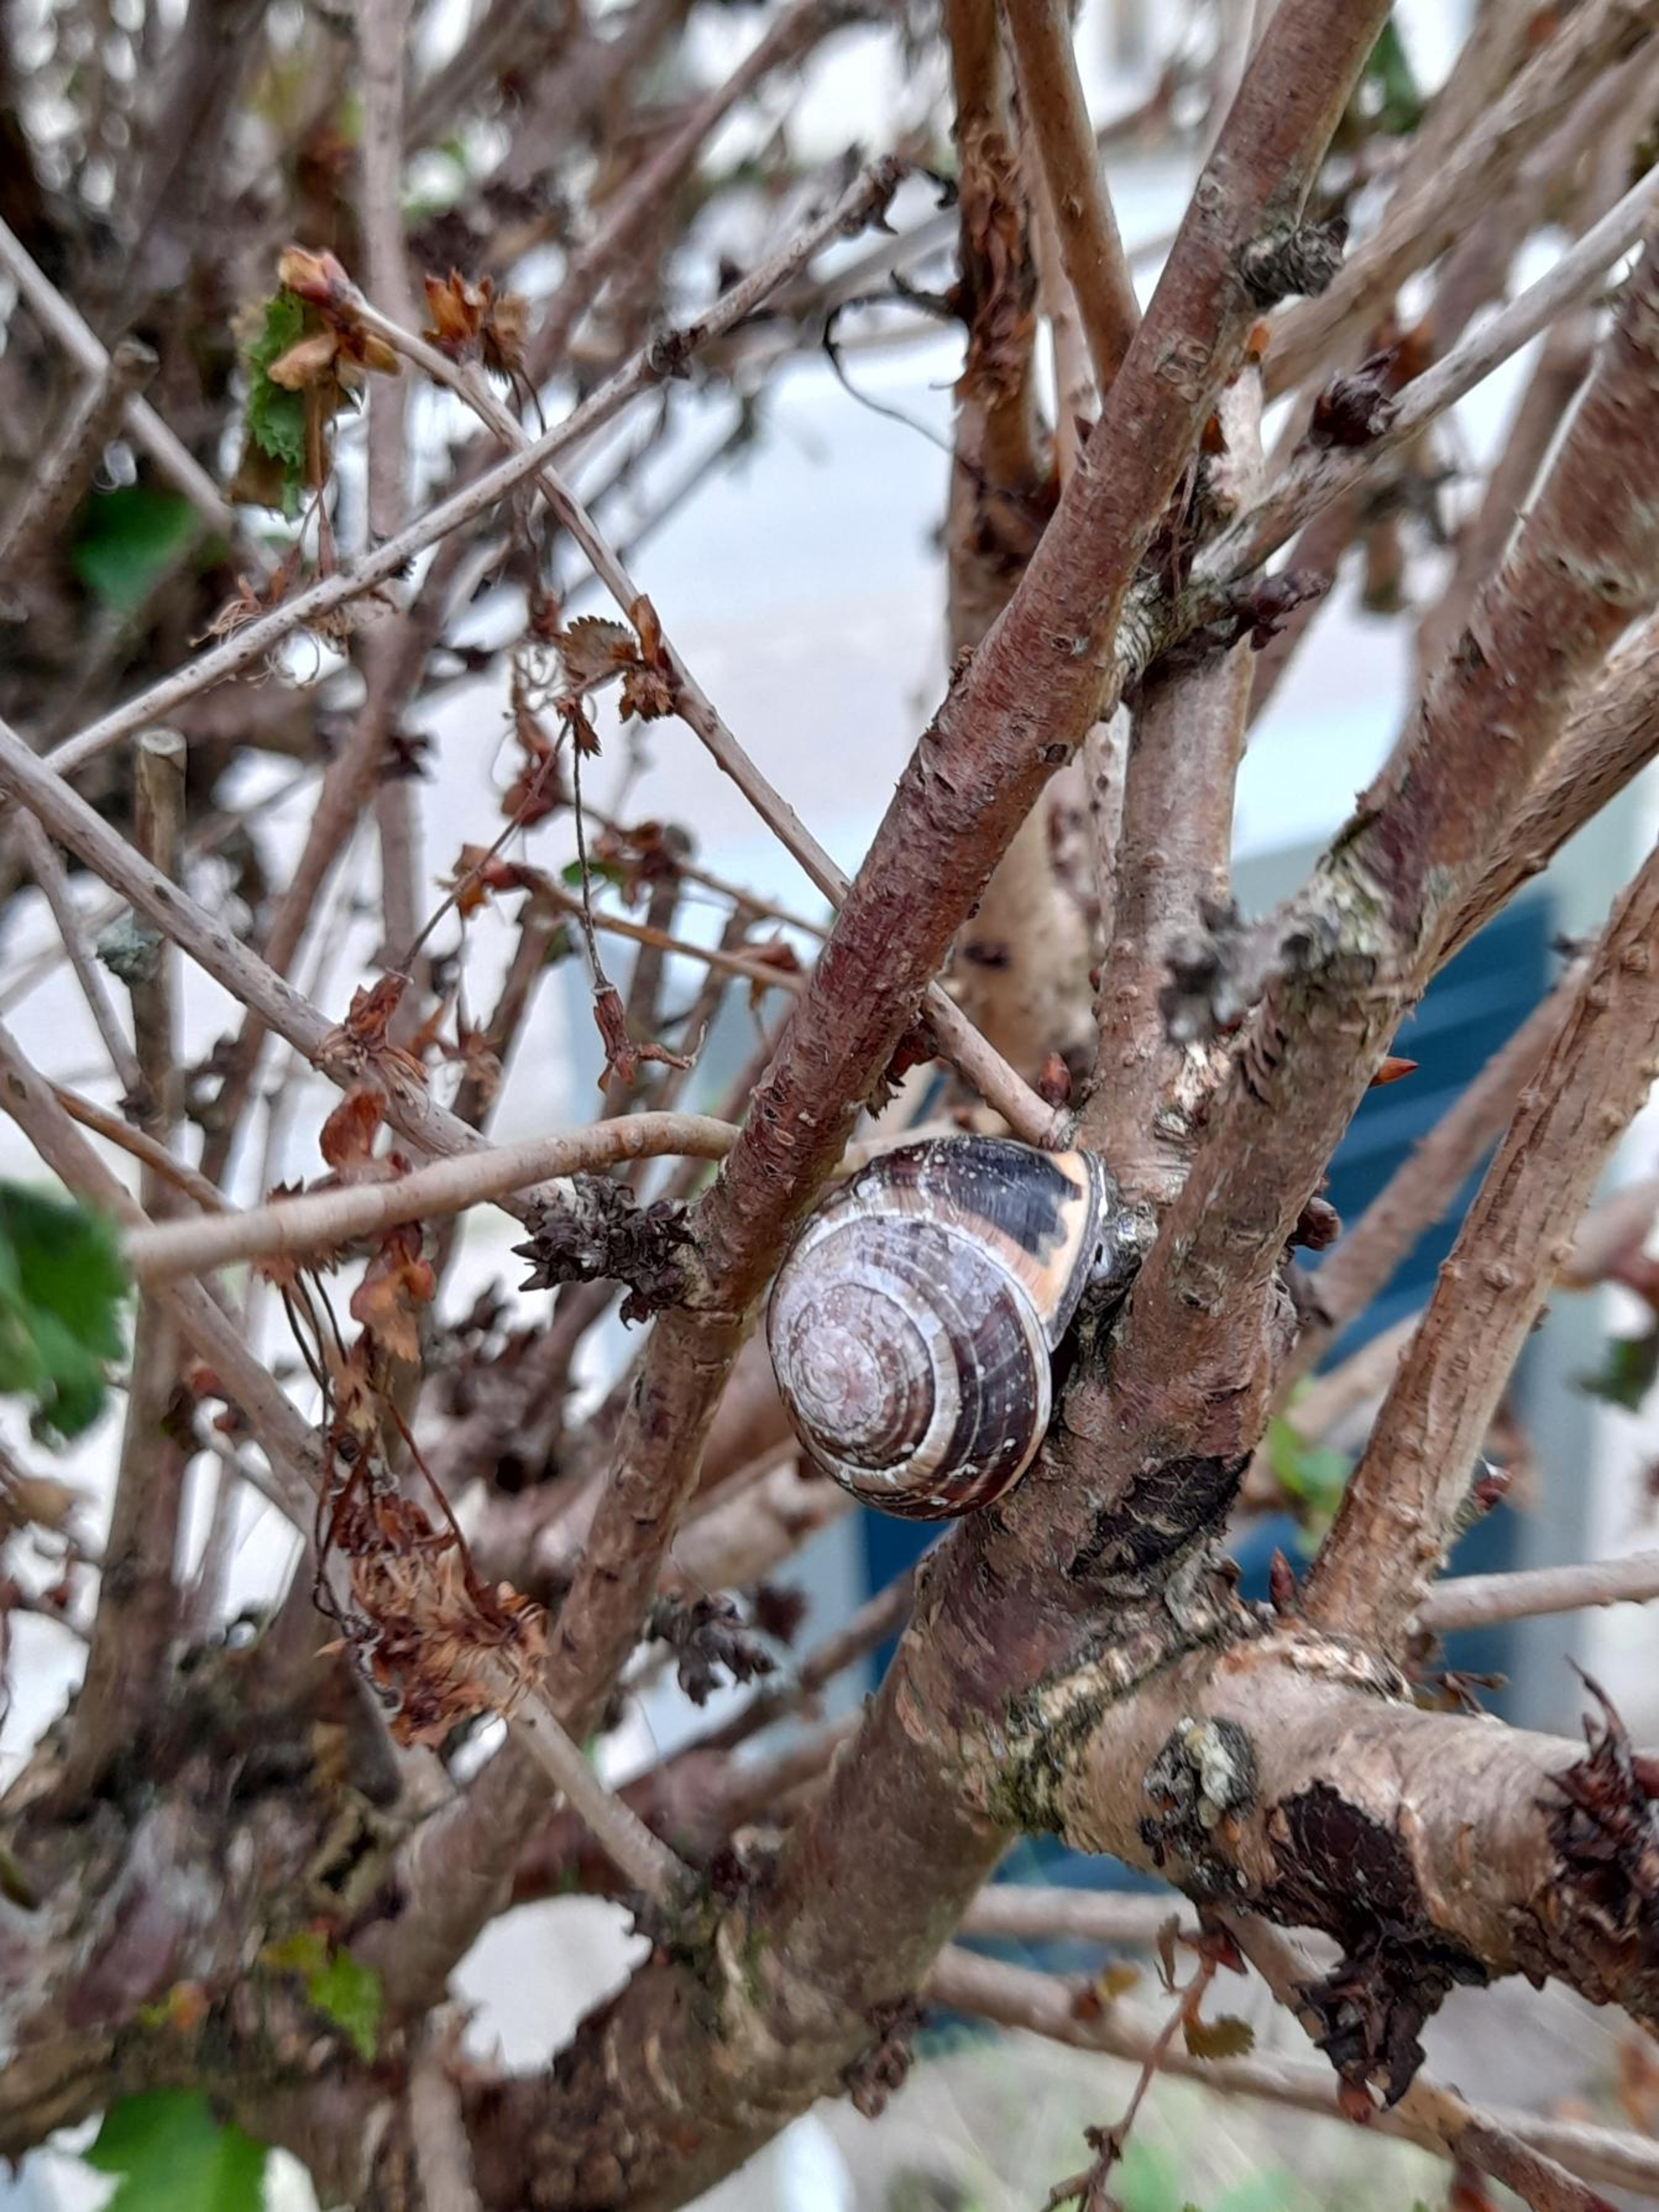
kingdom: Animalia
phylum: Mollusca
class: Gastropoda
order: Stylommatophora
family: Helicidae
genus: Cepaea
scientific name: Cepaea nemoralis
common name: Lundsnegl
